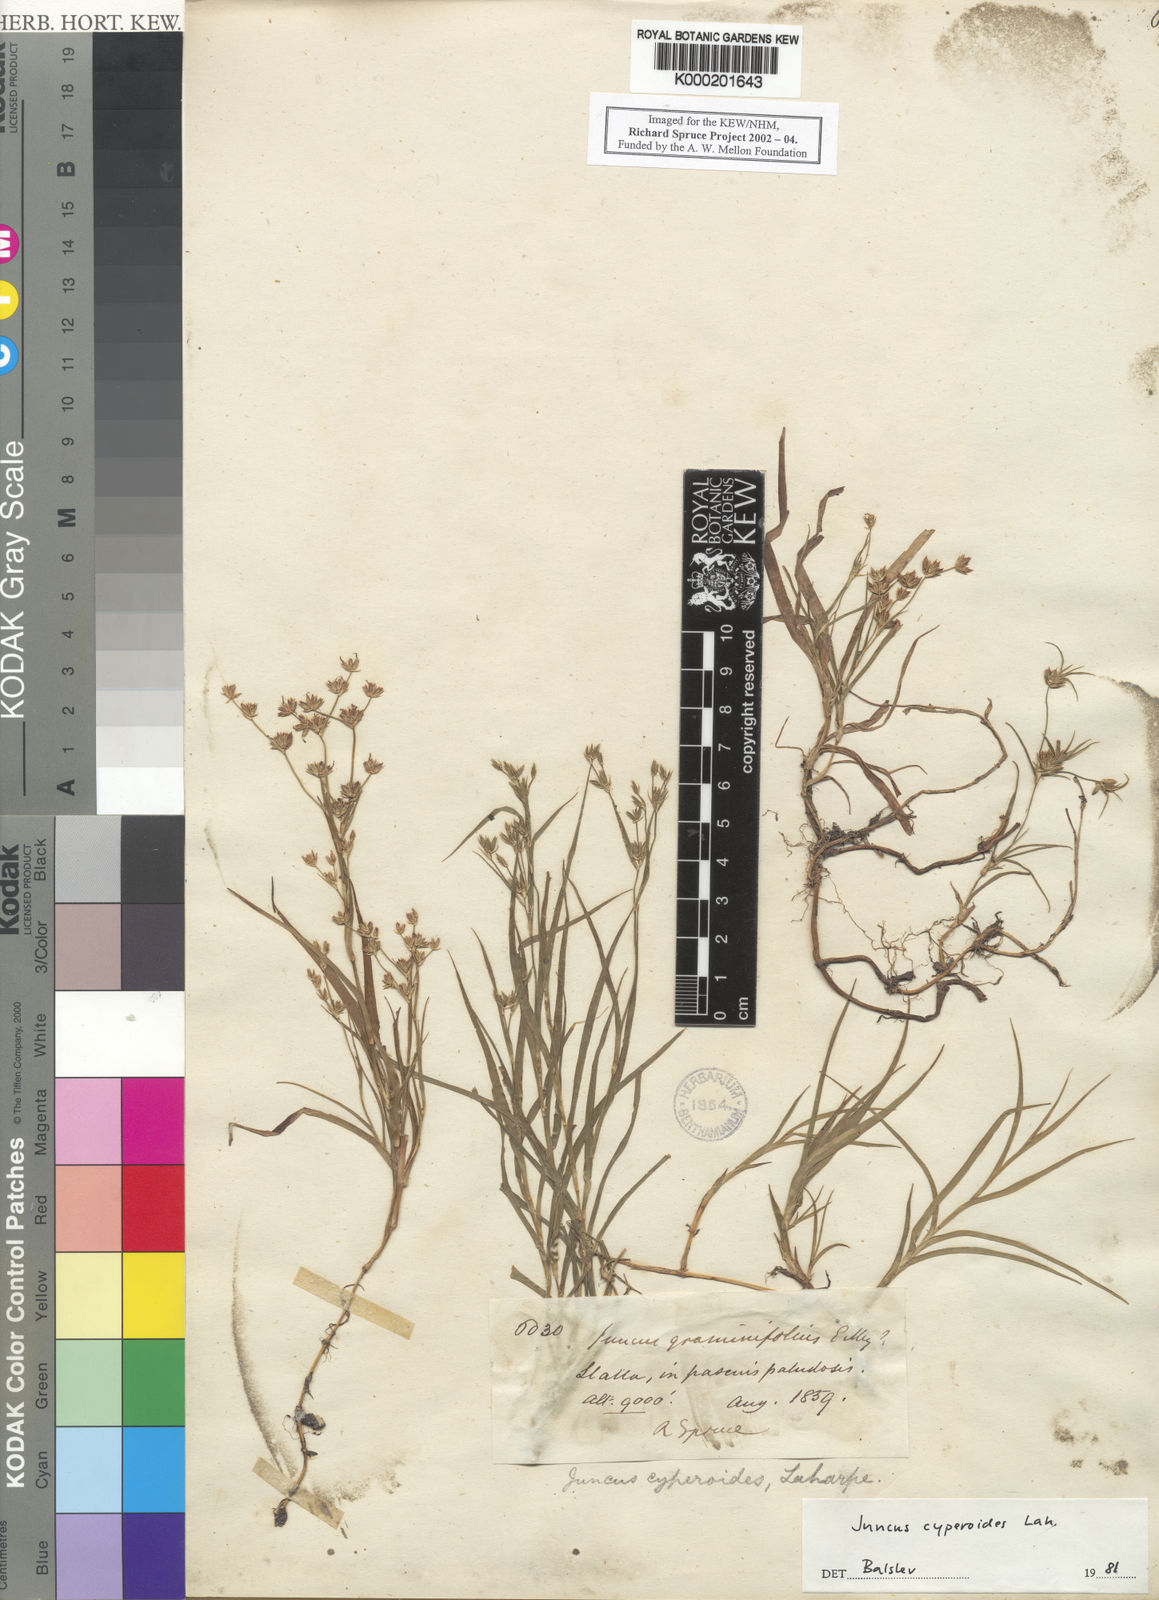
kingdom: Plantae
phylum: Tracheophyta
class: Liliopsida
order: Poales
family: Juncaceae
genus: Juncus
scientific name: Juncus cyperoides
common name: Forbestown rush
